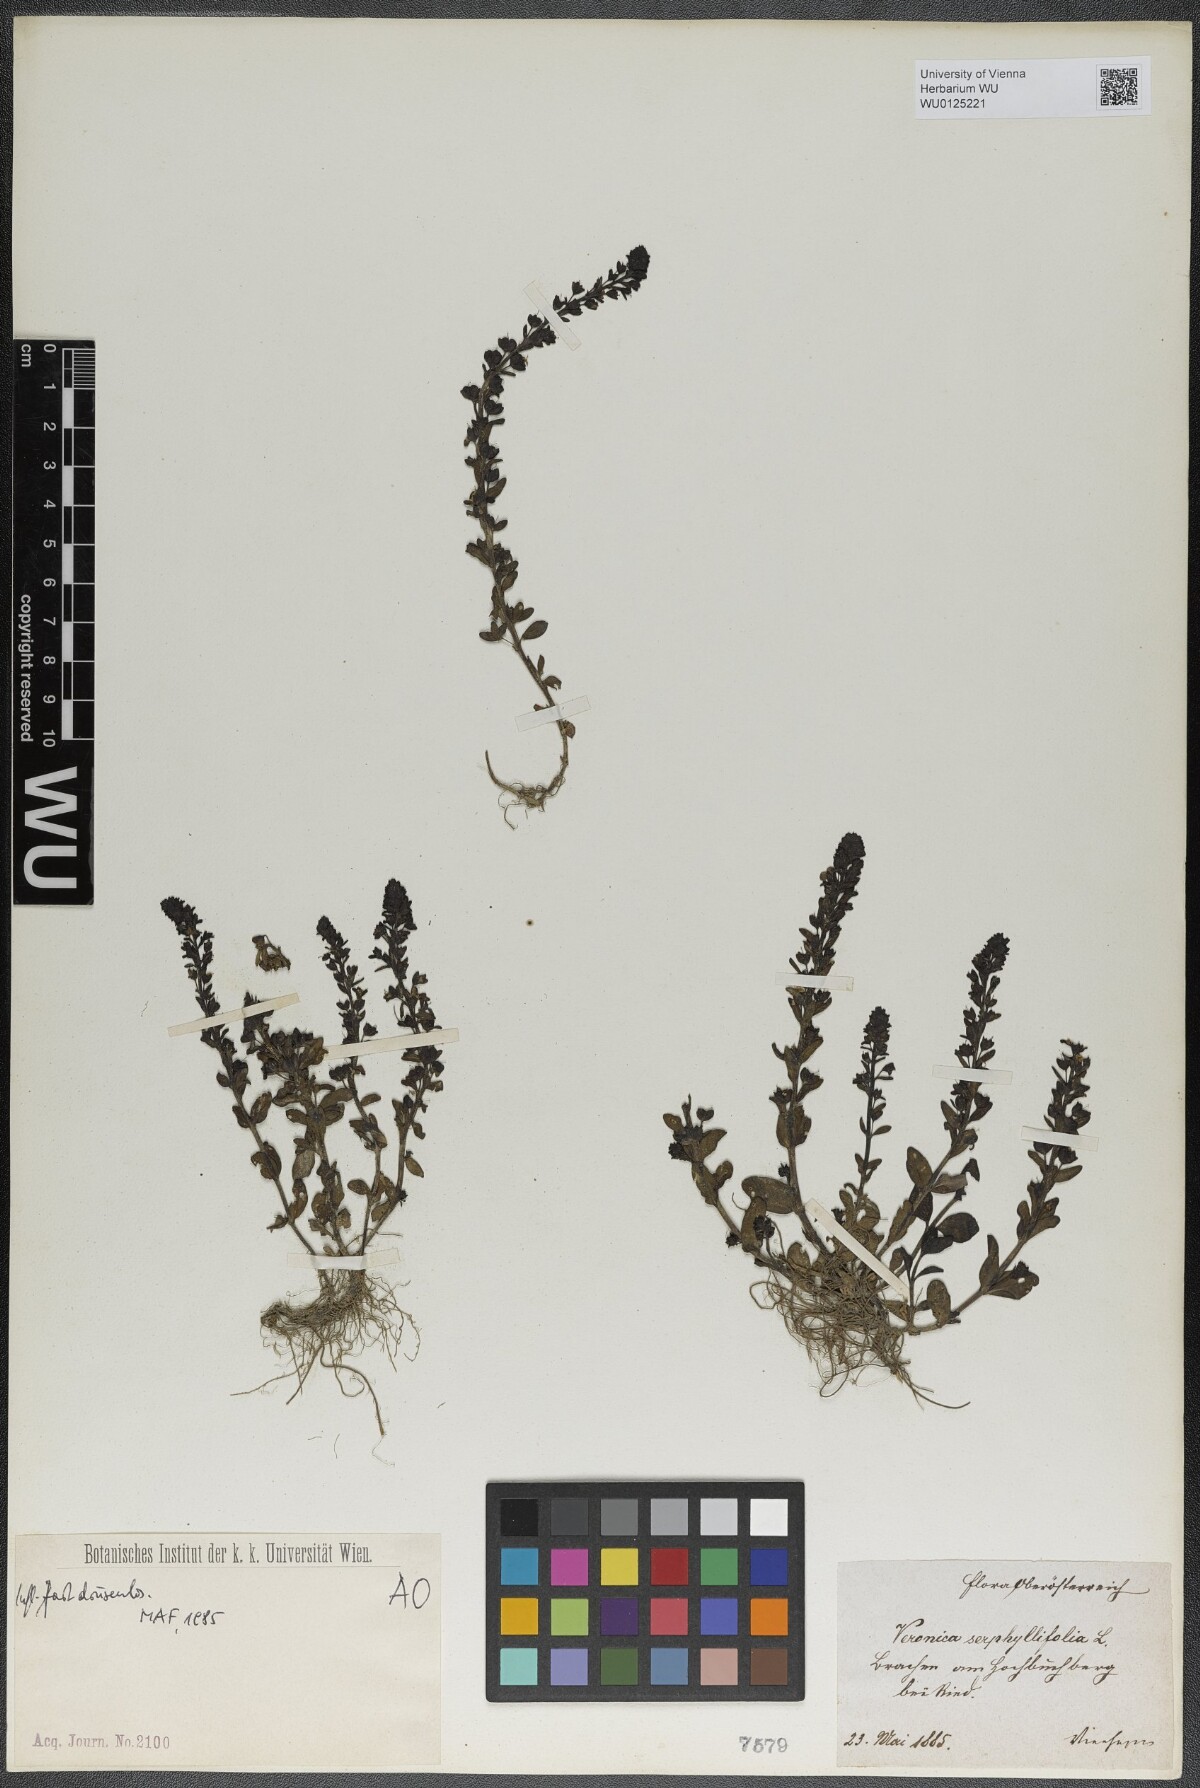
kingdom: Plantae
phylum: Tracheophyta
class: Magnoliopsida
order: Lamiales
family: Plantaginaceae
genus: Veronica
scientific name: Veronica serpyllifolia
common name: Thyme-leaved speedwell
